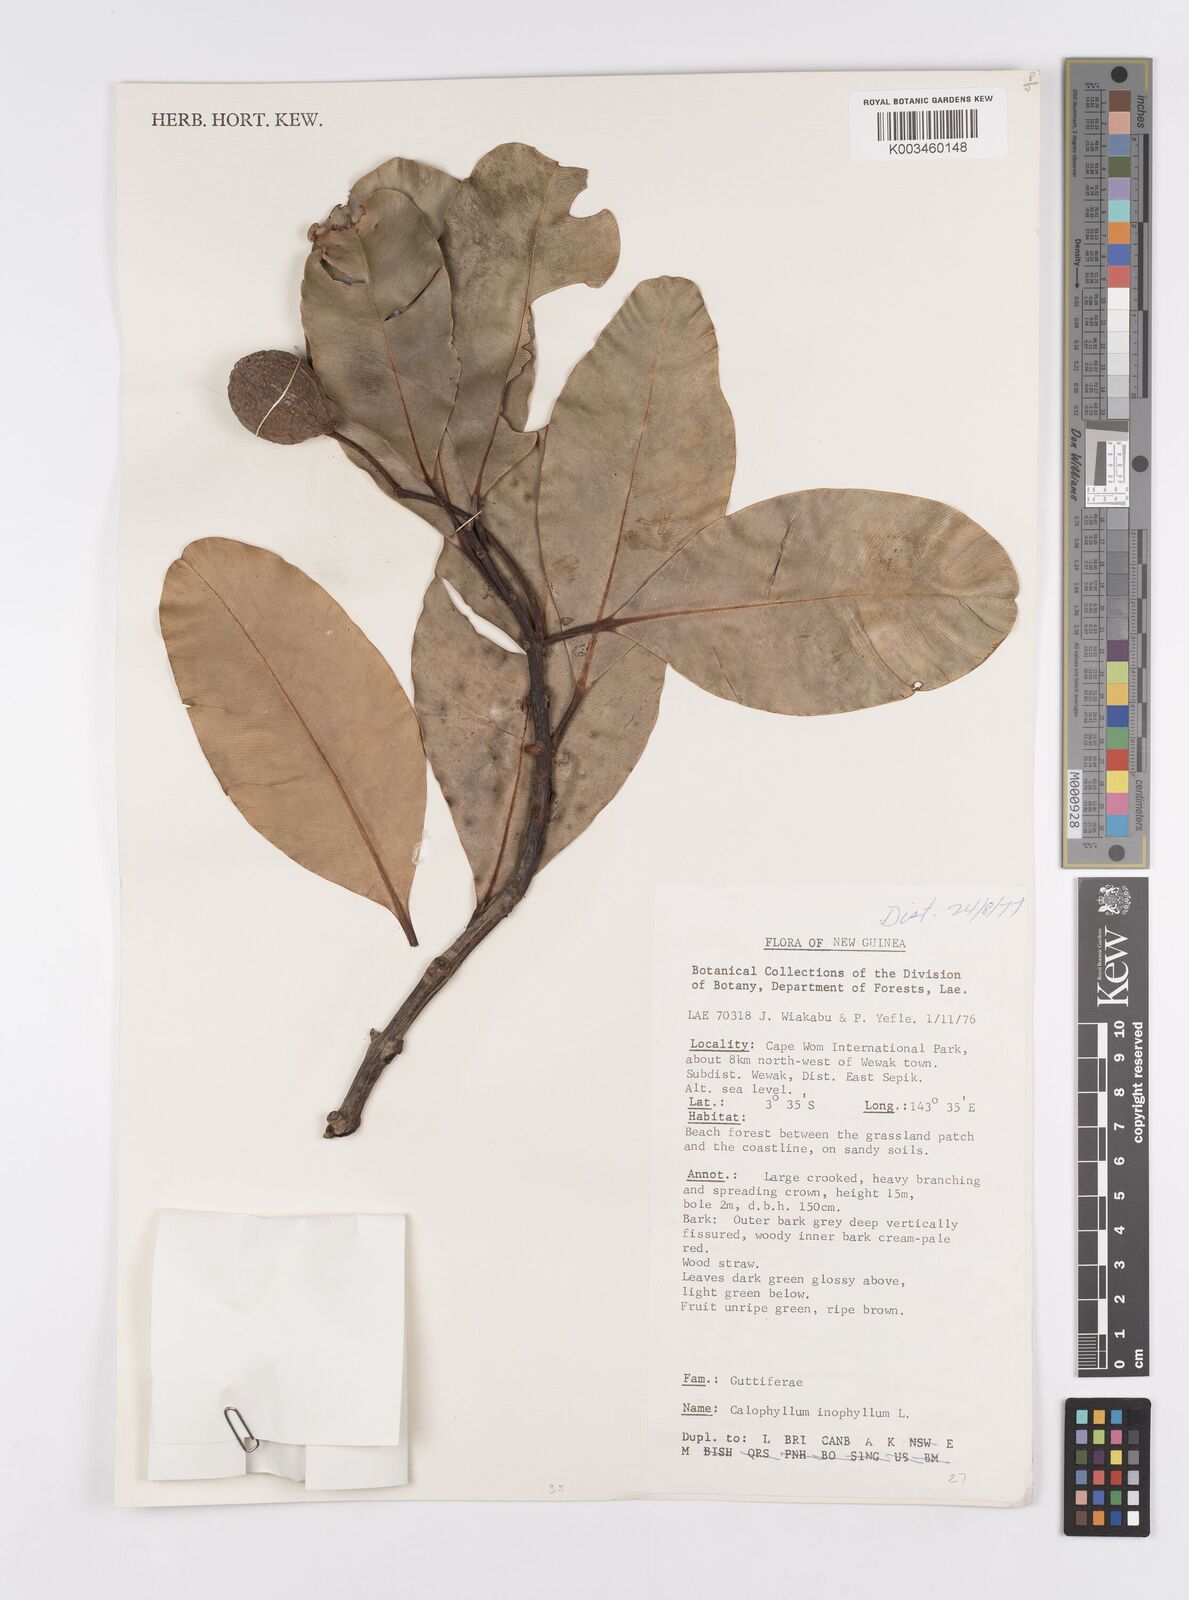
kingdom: Plantae
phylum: Tracheophyta
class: Magnoliopsida
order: Malpighiales
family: Calophyllaceae
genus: Calophyllum
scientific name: Calophyllum inophyllum
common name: Alexandrian laurel
